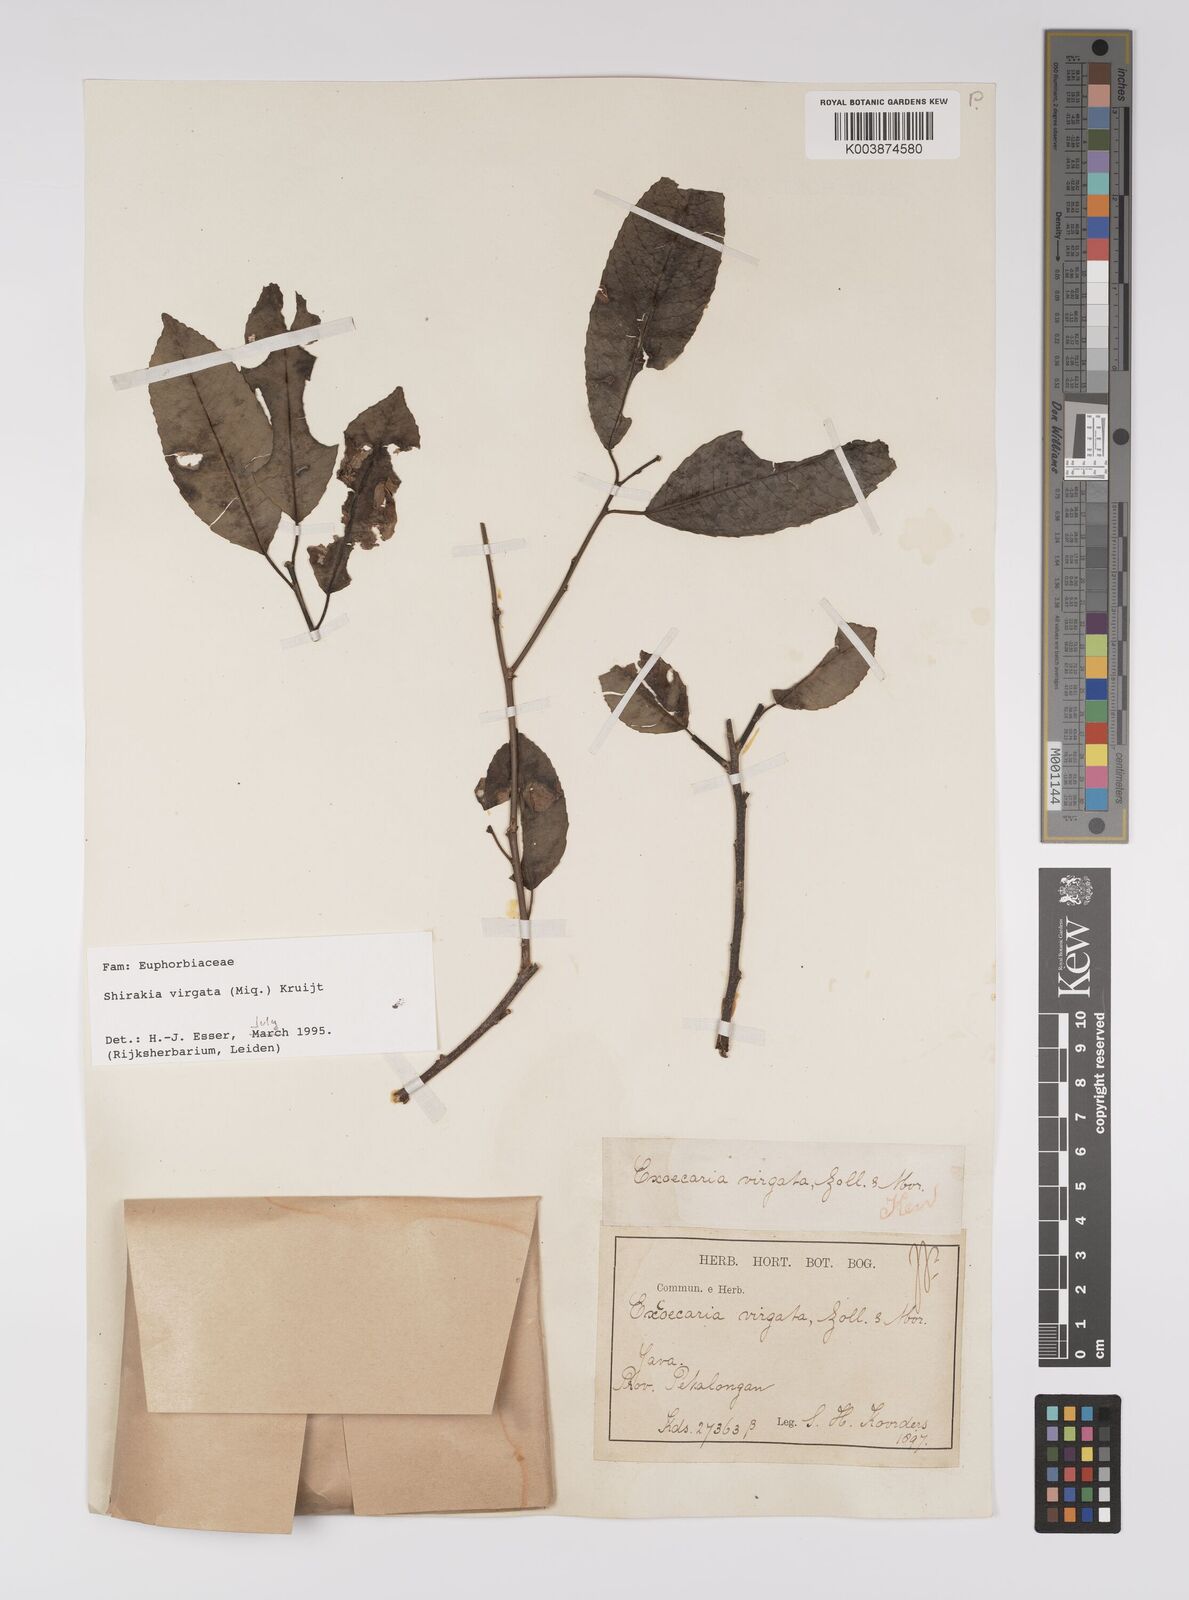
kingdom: Plantae
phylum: Tracheophyta
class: Magnoliopsida
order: Malpighiales
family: Euphorbiaceae
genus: Shirakiopsis
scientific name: Shirakiopsis virgata
